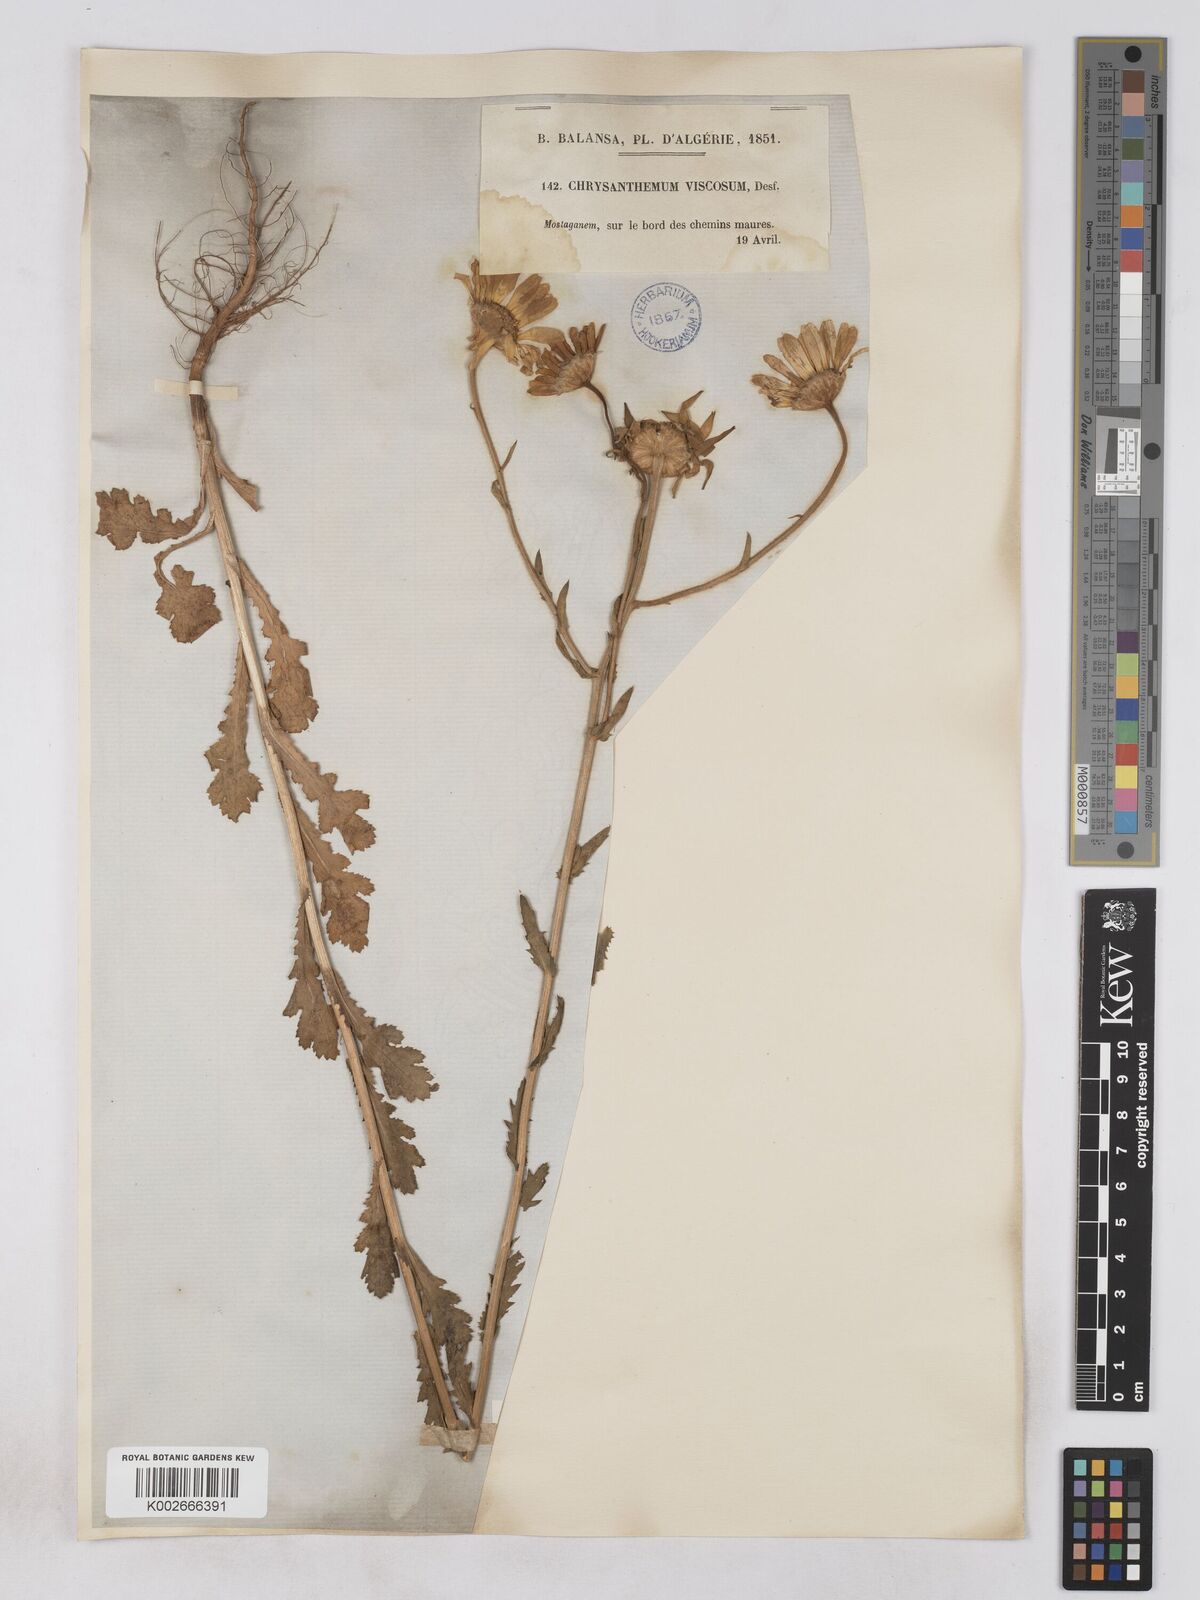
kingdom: Plantae
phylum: Tracheophyta
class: Magnoliopsida
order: Asterales
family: Asteraceae
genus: Heteranthemis
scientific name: Heteranthemis
